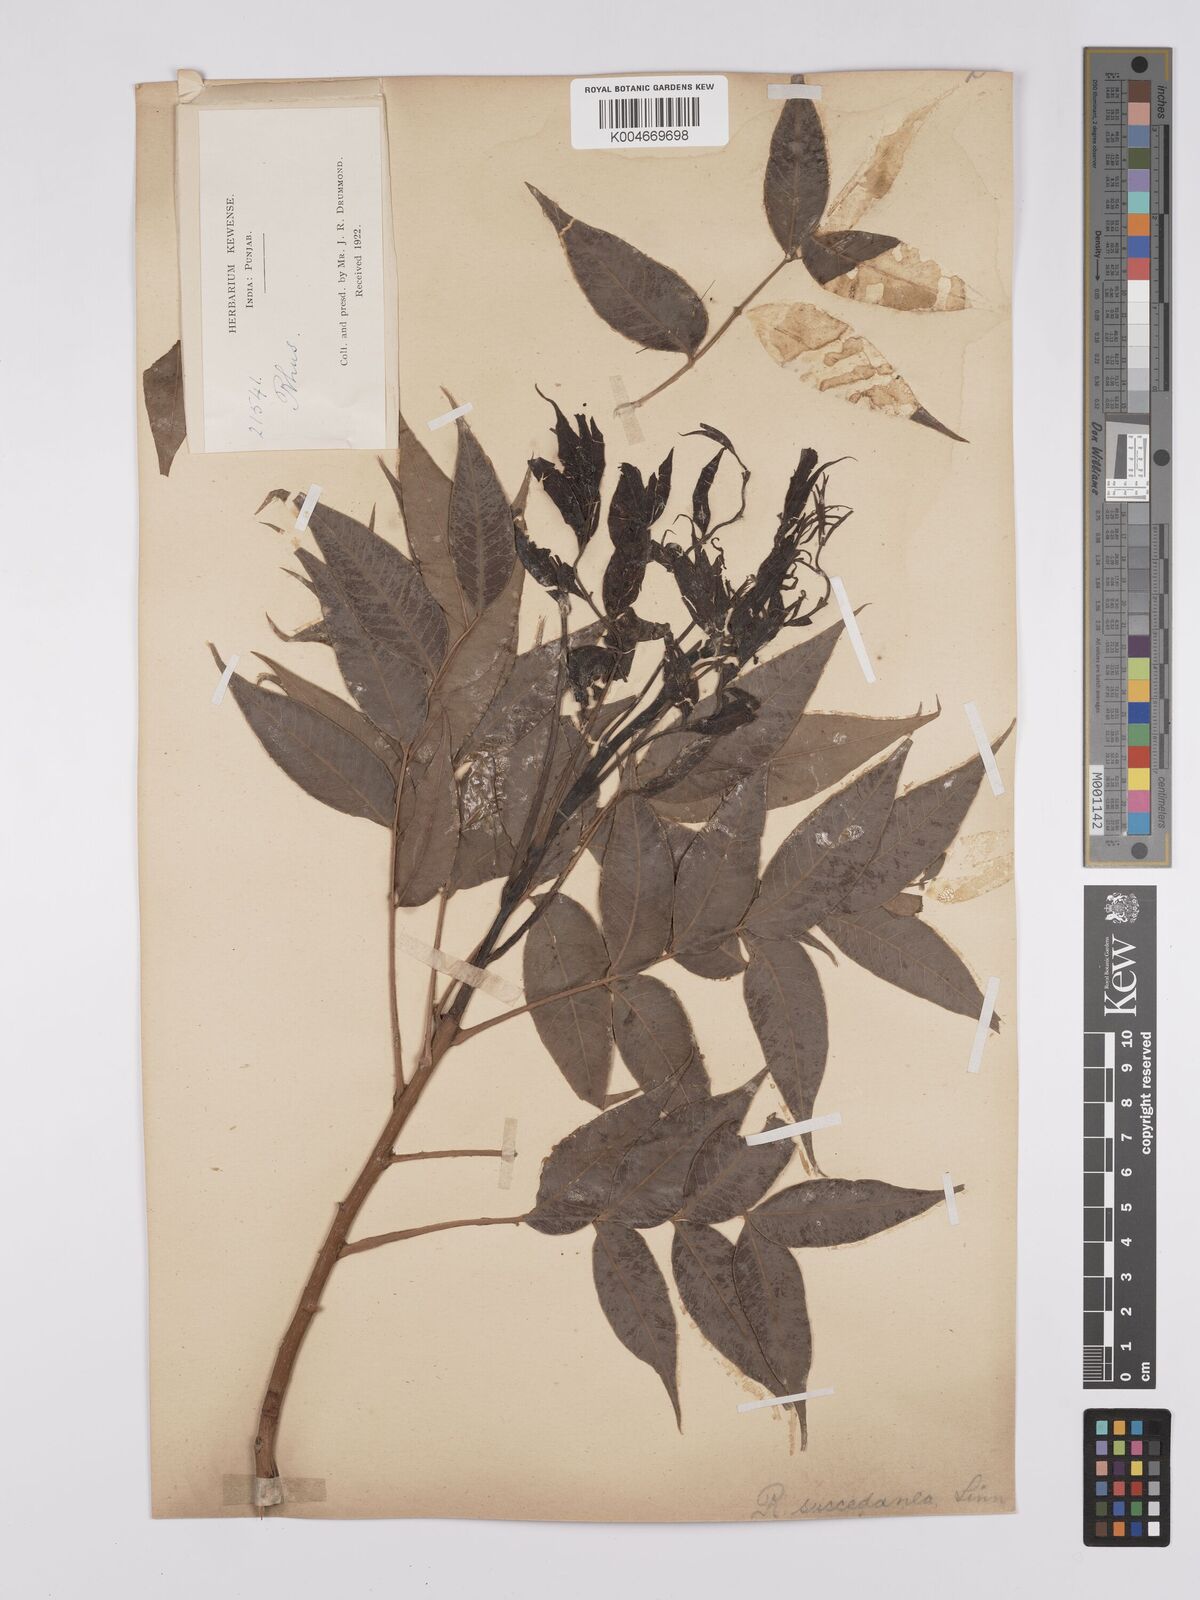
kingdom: Plantae
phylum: Tracheophyta
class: Magnoliopsida
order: Sapindales
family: Anacardiaceae
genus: Toxicodendron
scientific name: Toxicodendron succedaneum
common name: Wax tree
